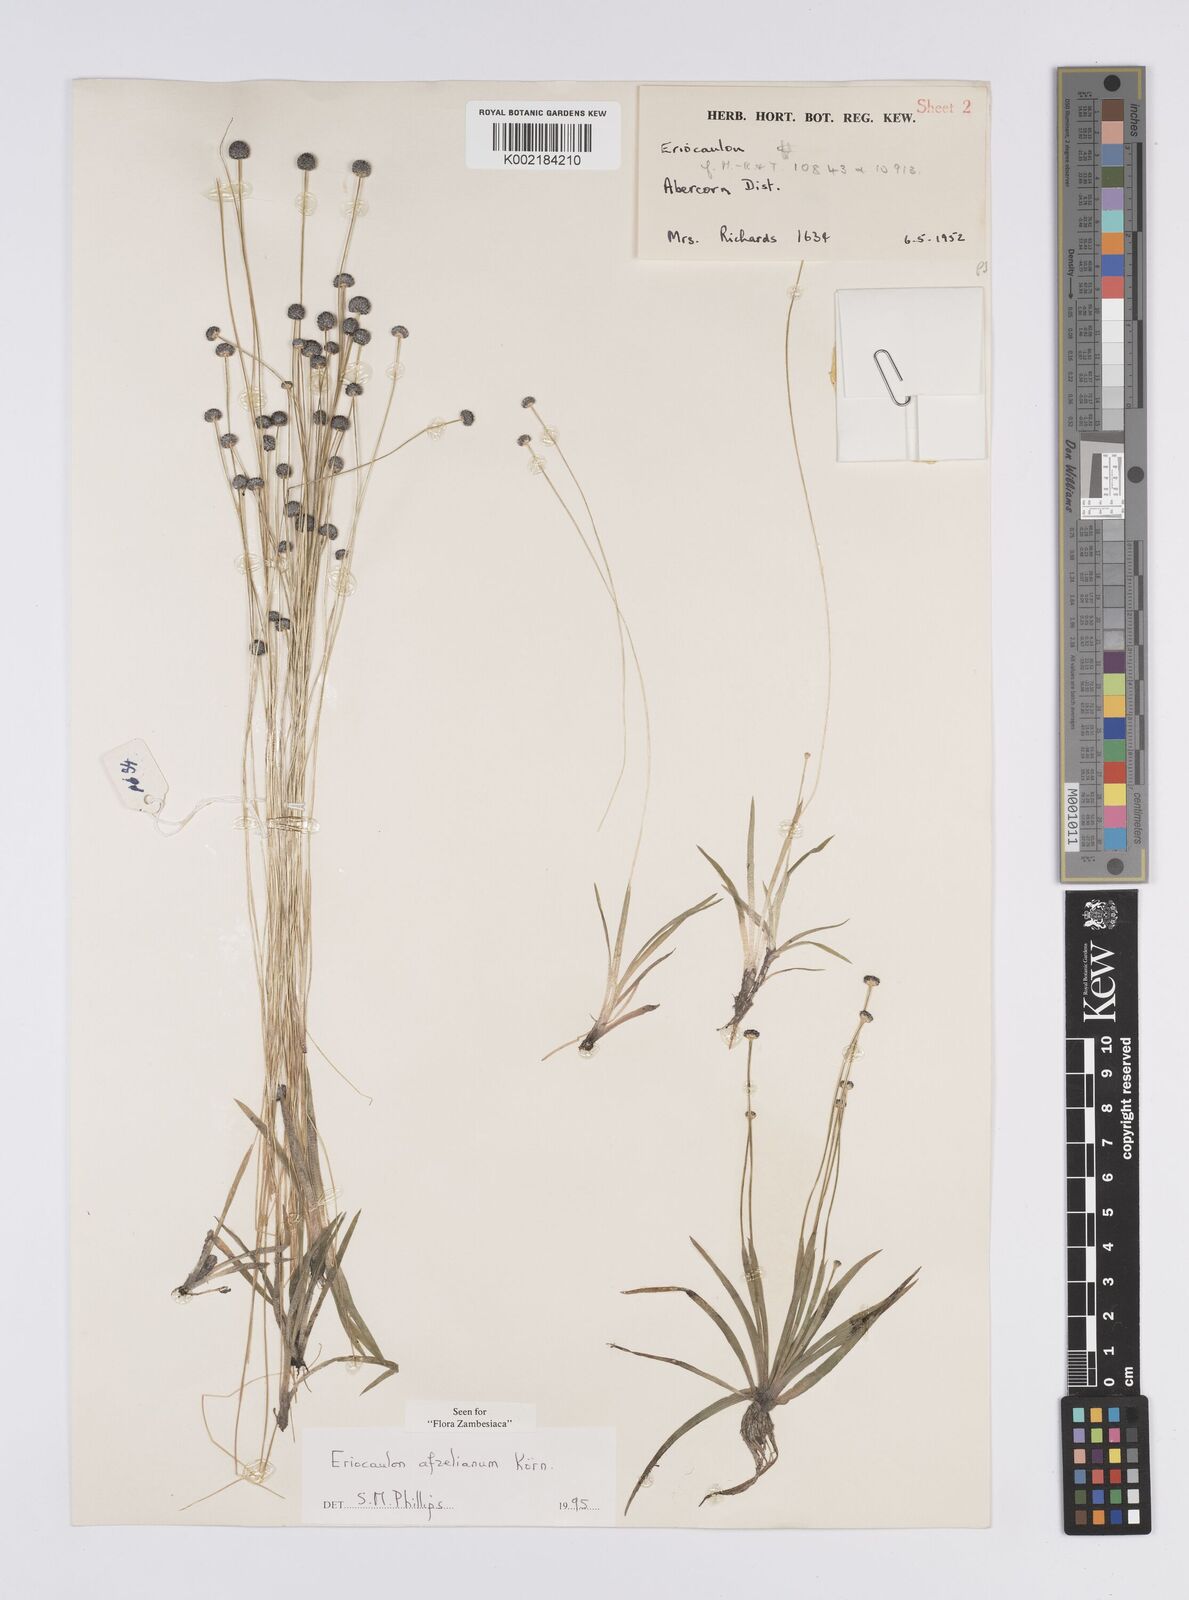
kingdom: Plantae
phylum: Tracheophyta
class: Liliopsida
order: Poales
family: Eriocaulaceae
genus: Eriocaulon
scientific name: Eriocaulon afzelianum
